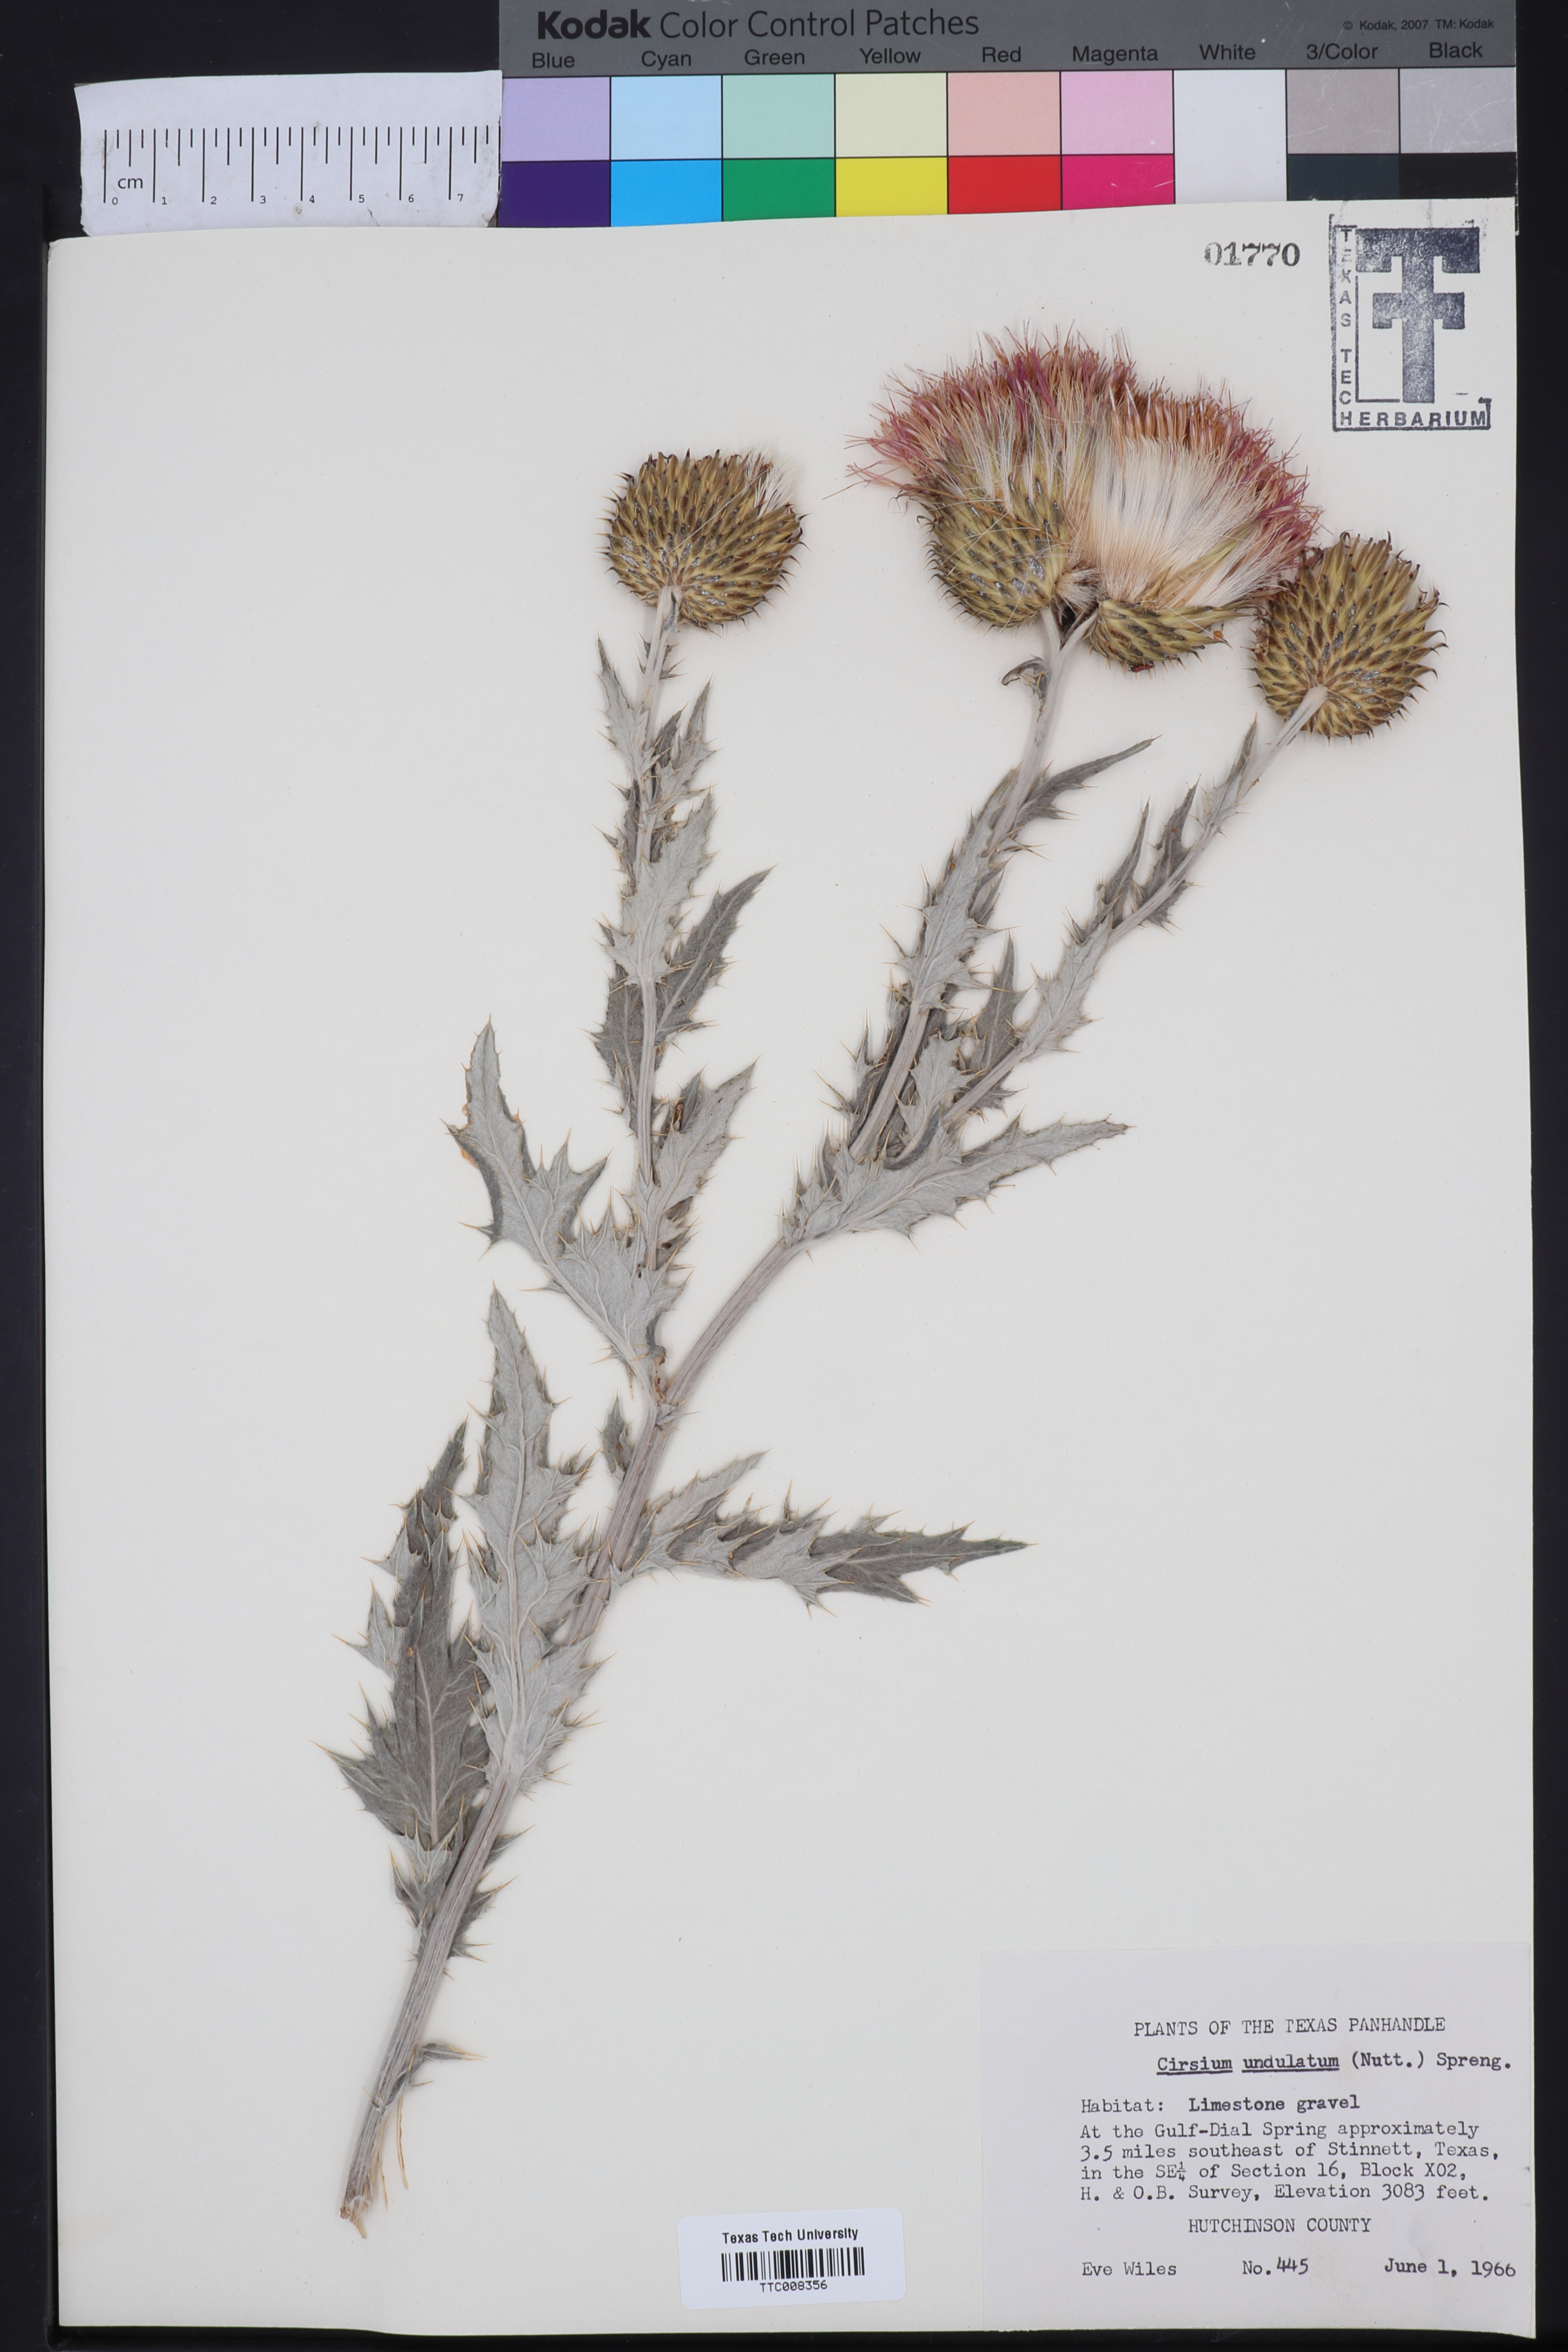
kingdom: Plantae
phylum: Tracheophyta
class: Magnoliopsida
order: Asterales
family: Asteraceae
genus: Cirsium
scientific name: Cirsium undulatum
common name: Pasture thistle
